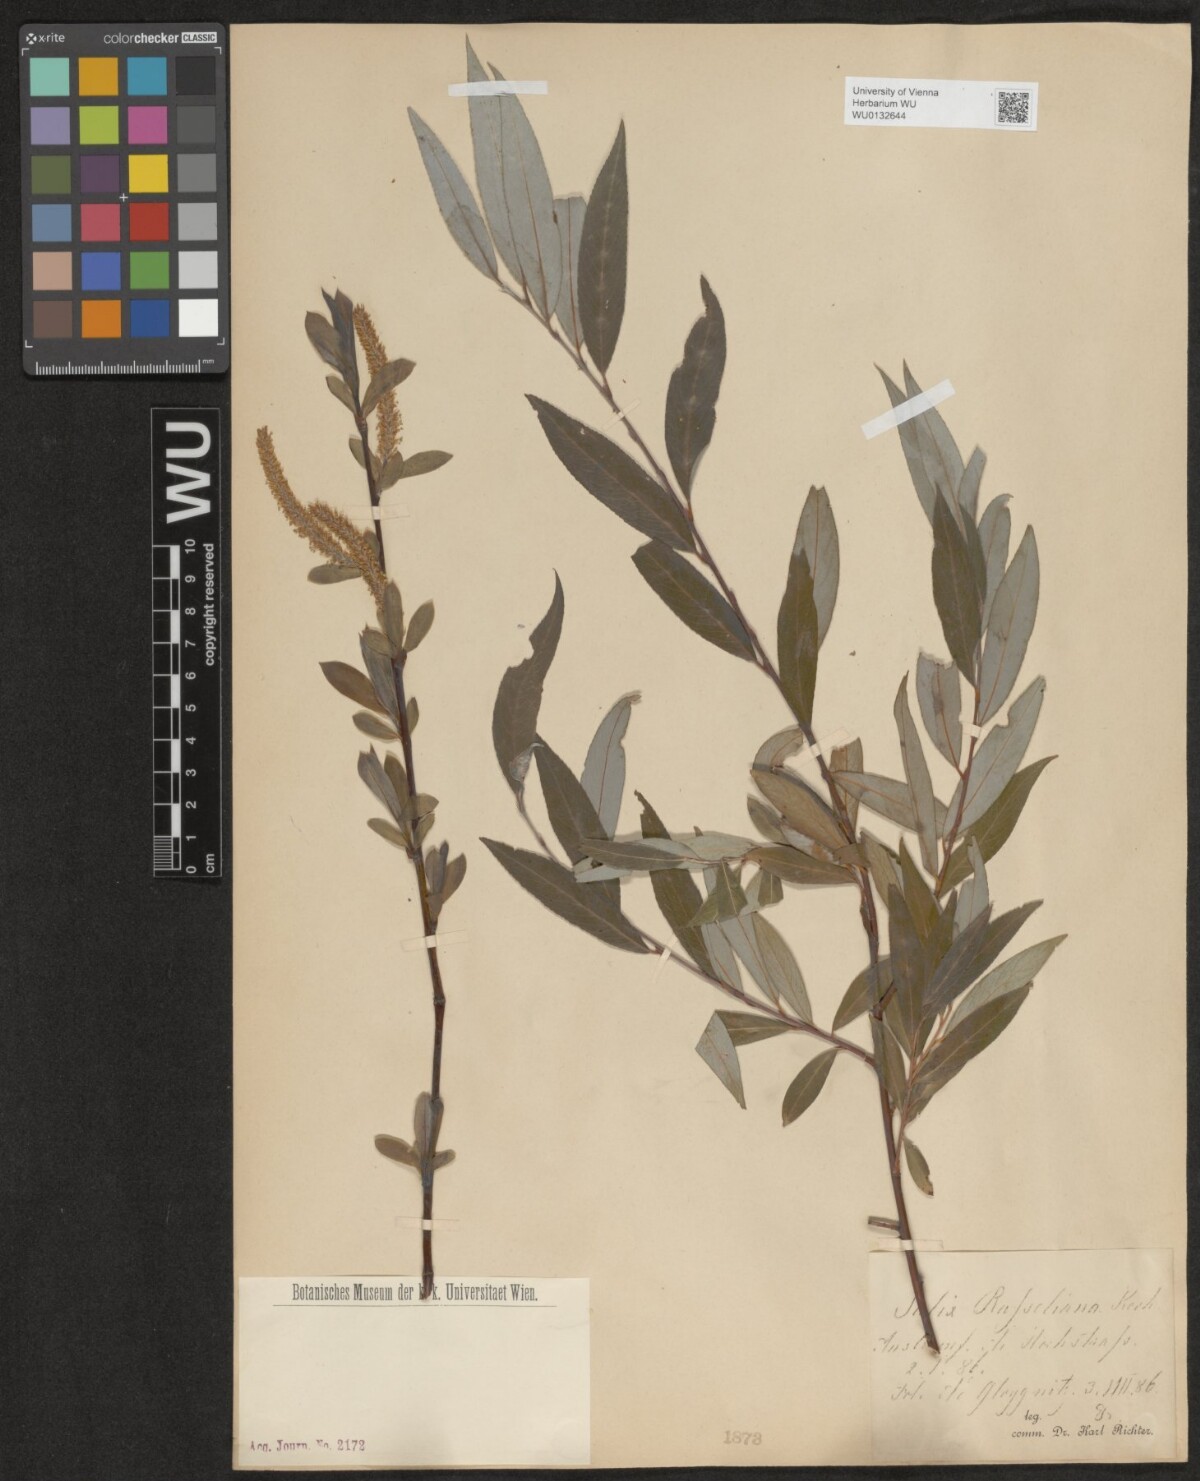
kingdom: Plantae
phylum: Tracheophyta
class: Magnoliopsida
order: Malpighiales
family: Salicaceae
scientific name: Salicaceae
